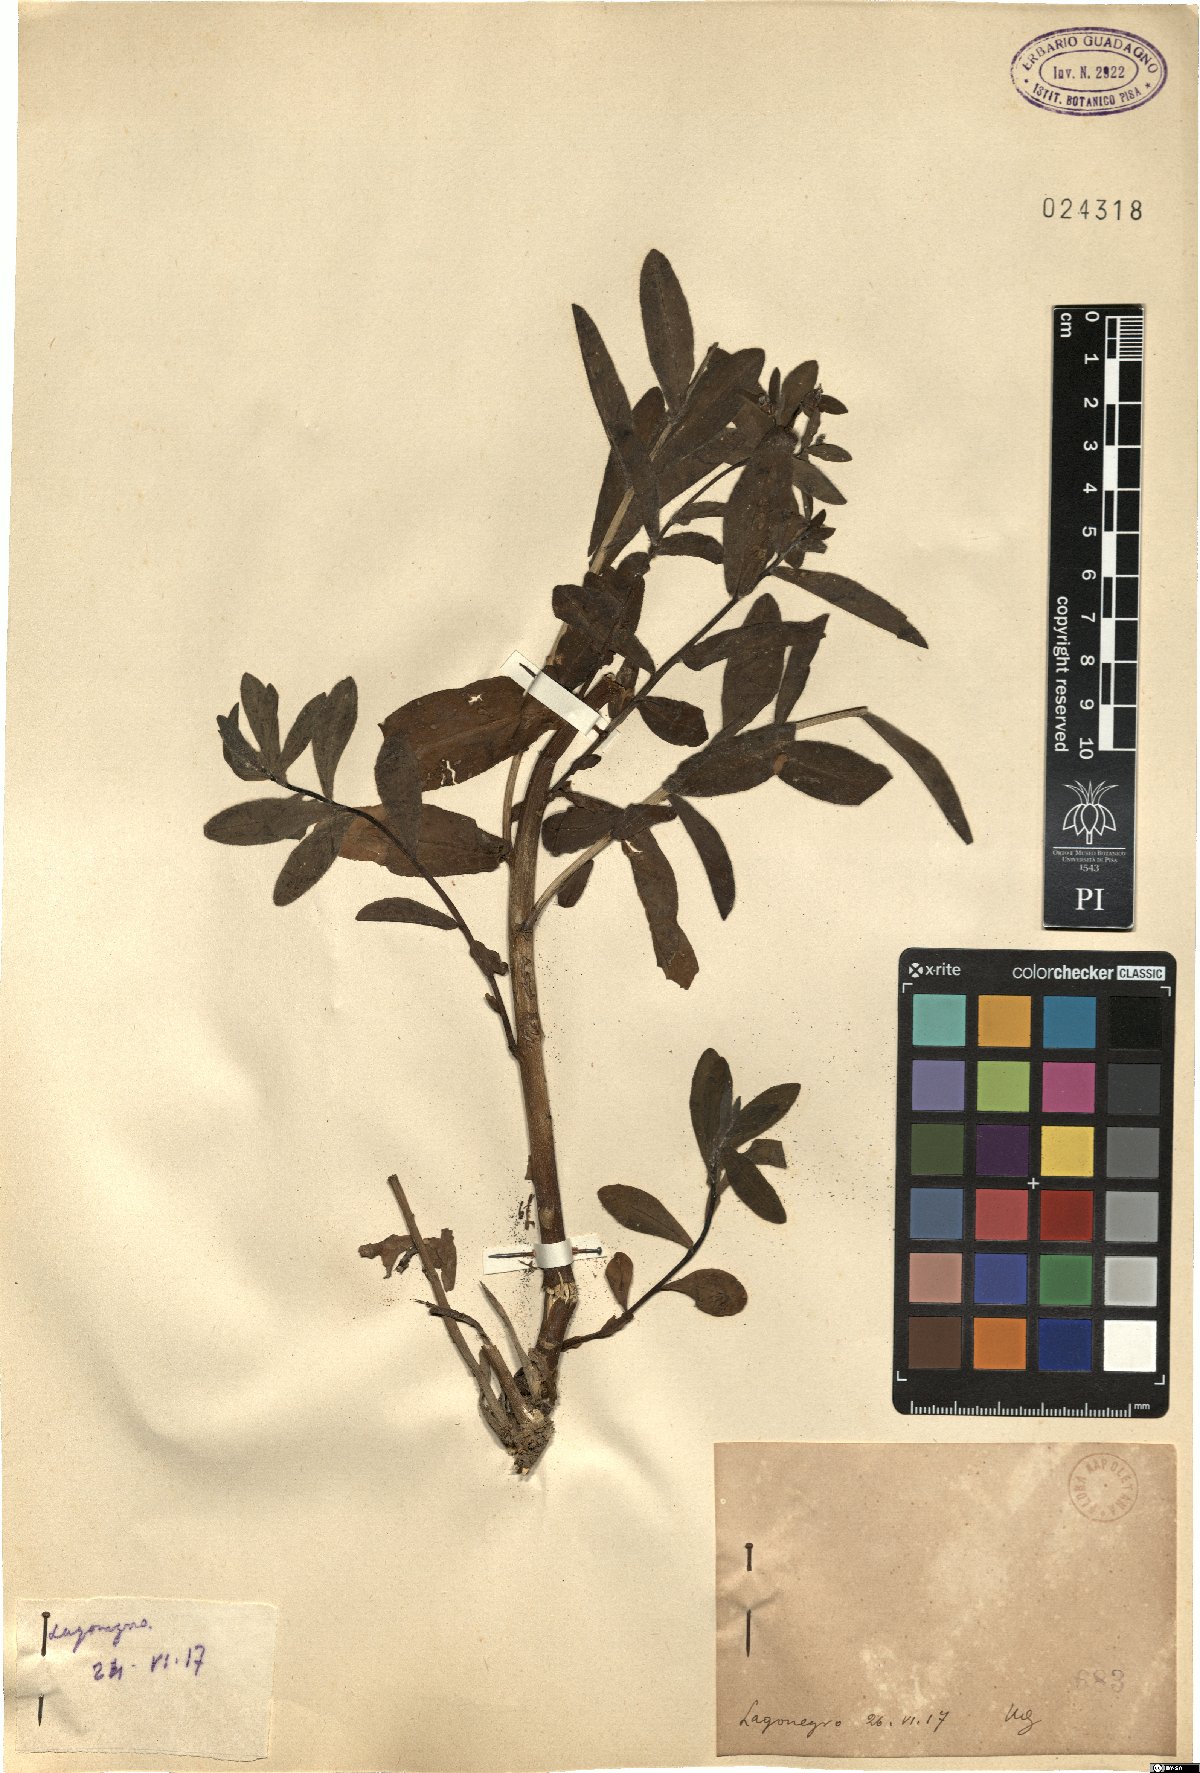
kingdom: Plantae
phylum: Tracheophyta
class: Magnoliopsida
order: Malpighiales
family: Euphorbiaceae
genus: Euphorbia
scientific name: Euphorbia
